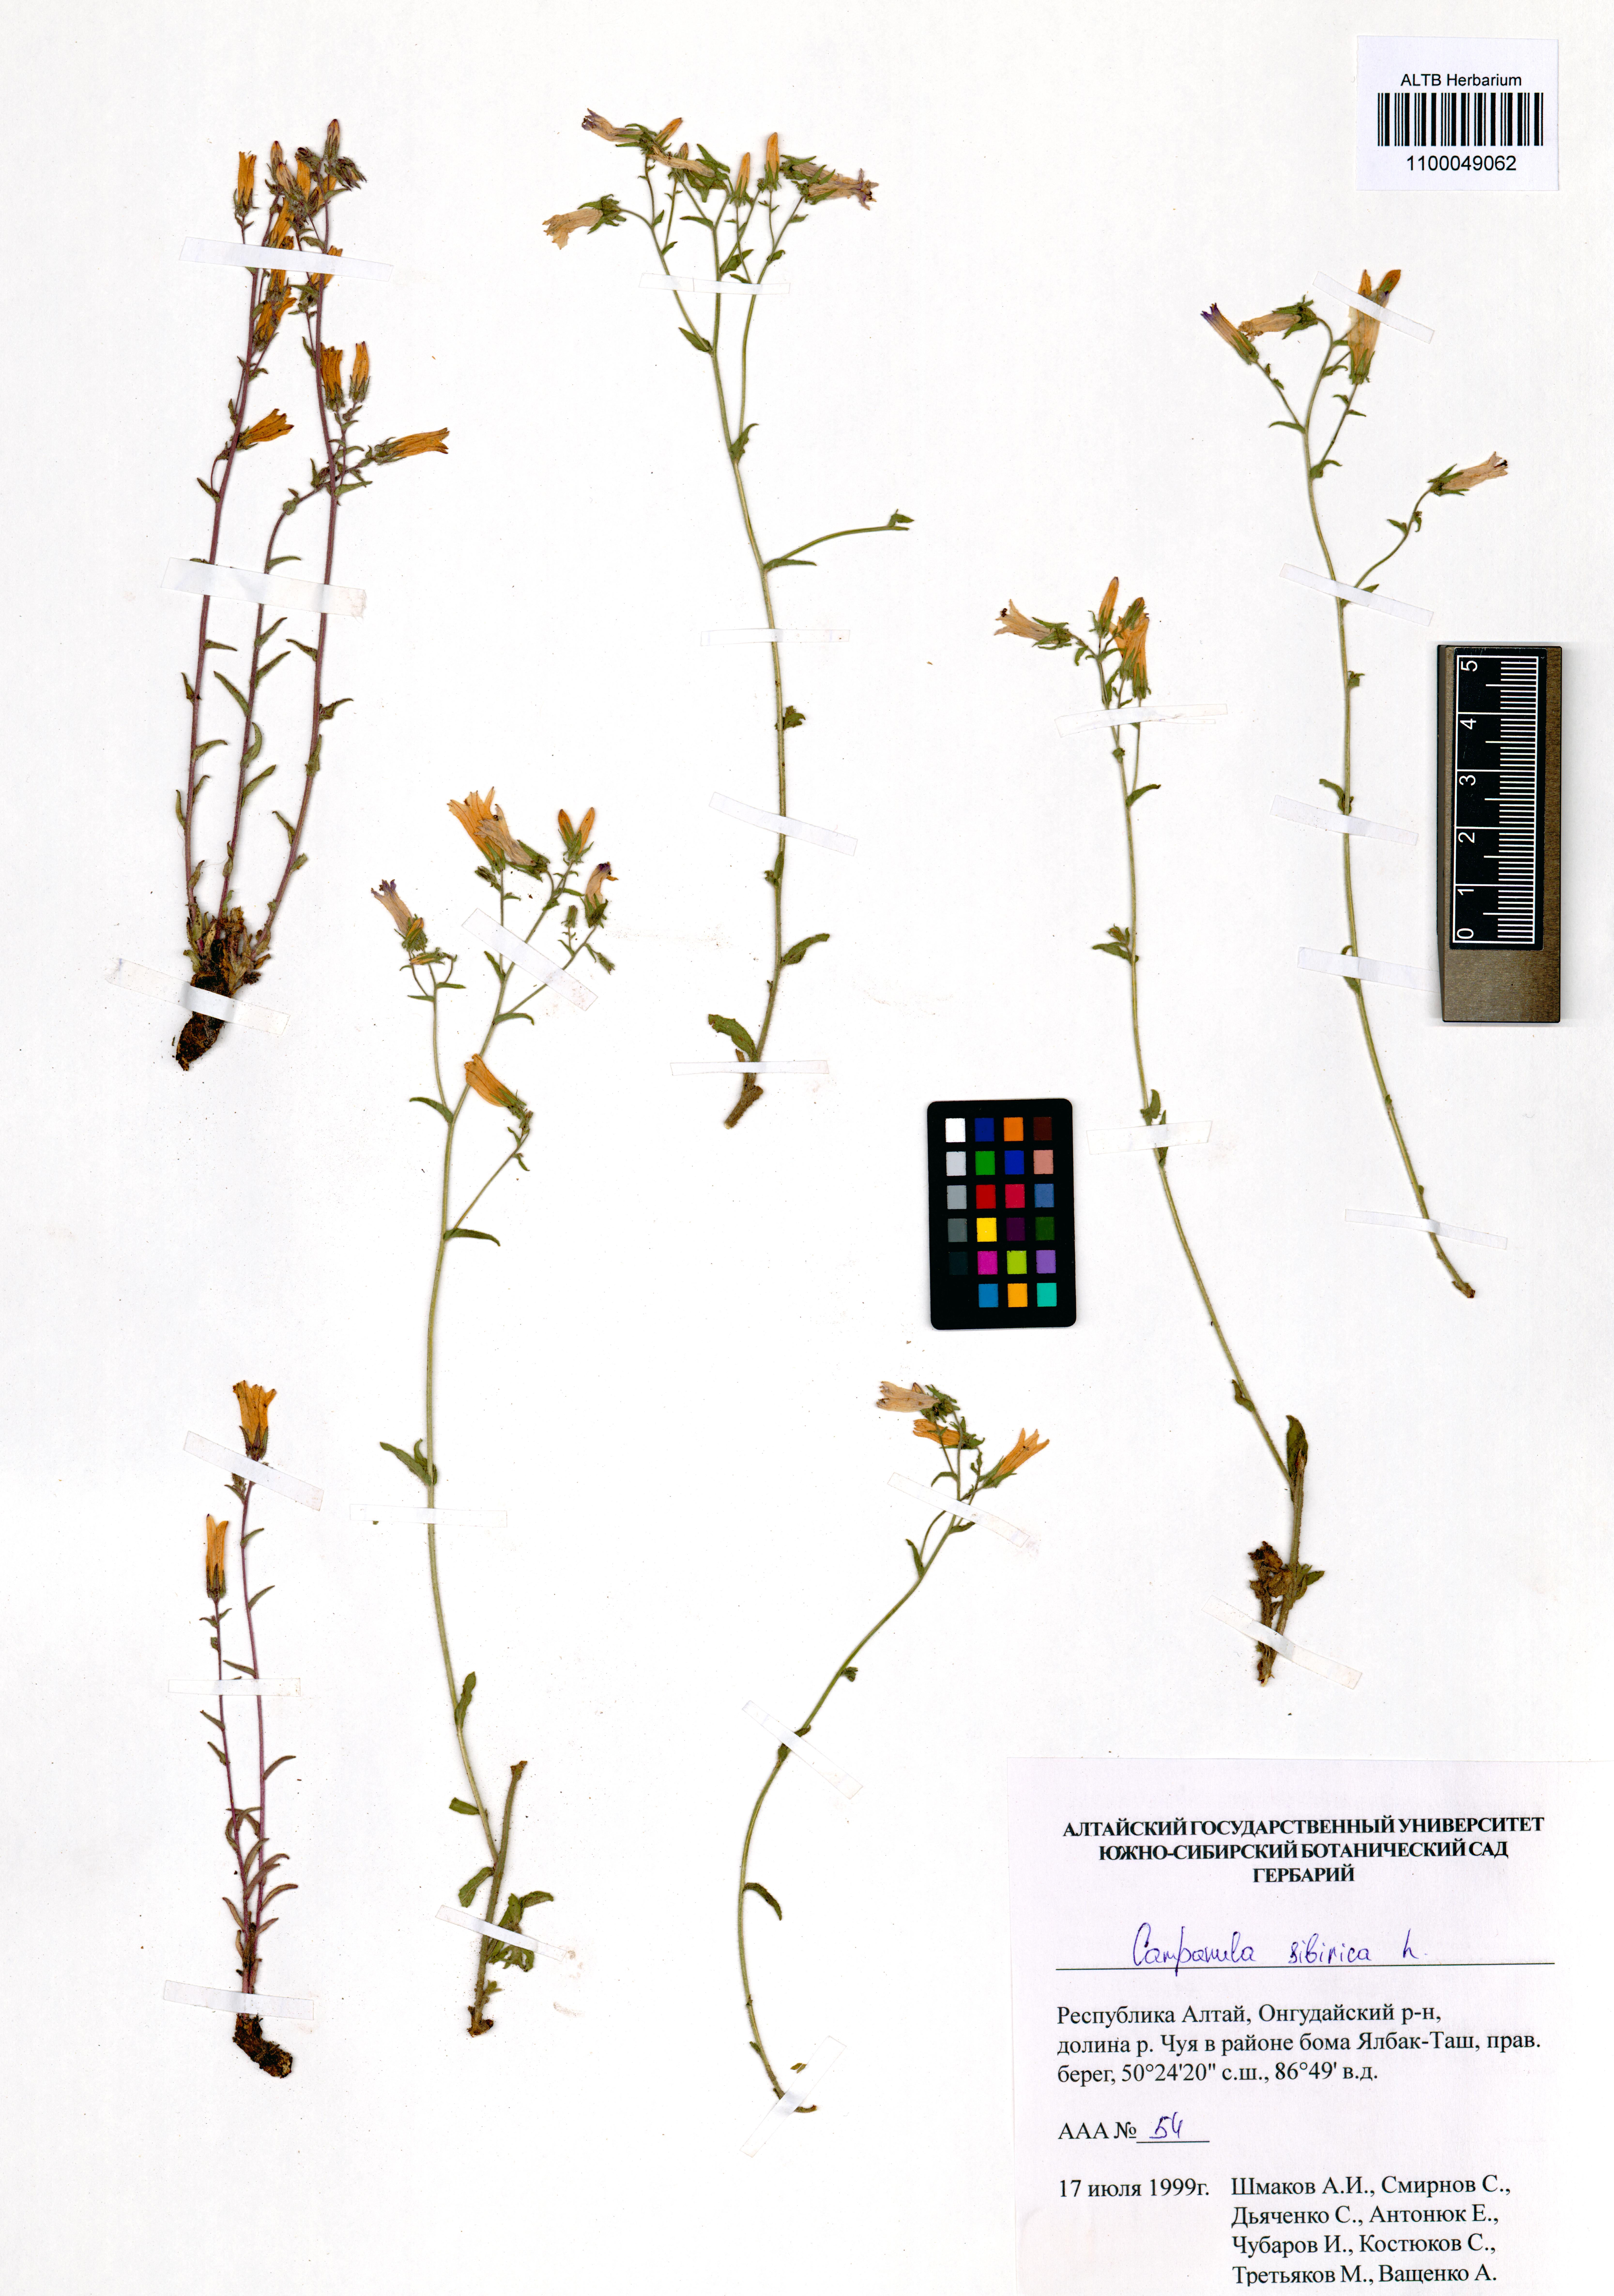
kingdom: Plantae
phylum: Tracheophyta
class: Magnoliopsida
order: Asterales
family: Campanulaceae
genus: Campanula
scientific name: Campanula sibirica
